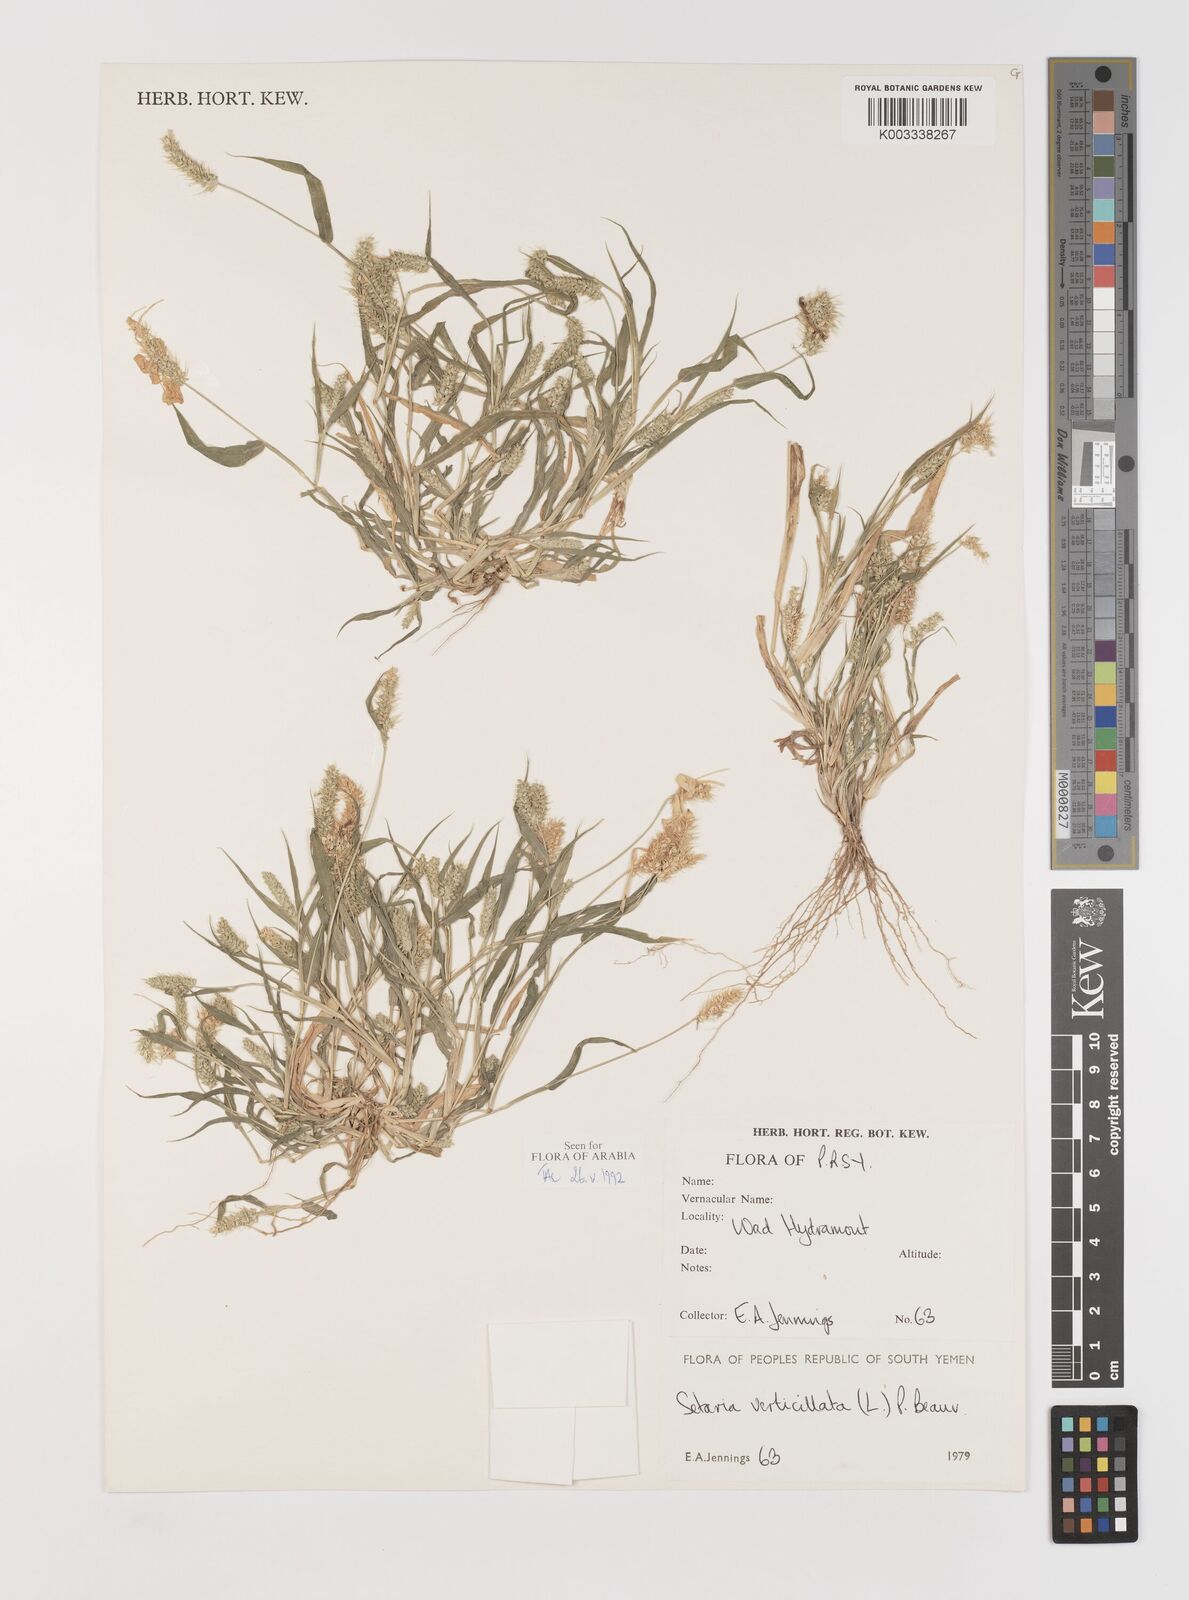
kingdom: Plantae
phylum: Tracheophyta
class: Liliopsida
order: Poales
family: Poaceae
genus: Setaria
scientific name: Setaria verticillata
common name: Hooked bristlegrass
